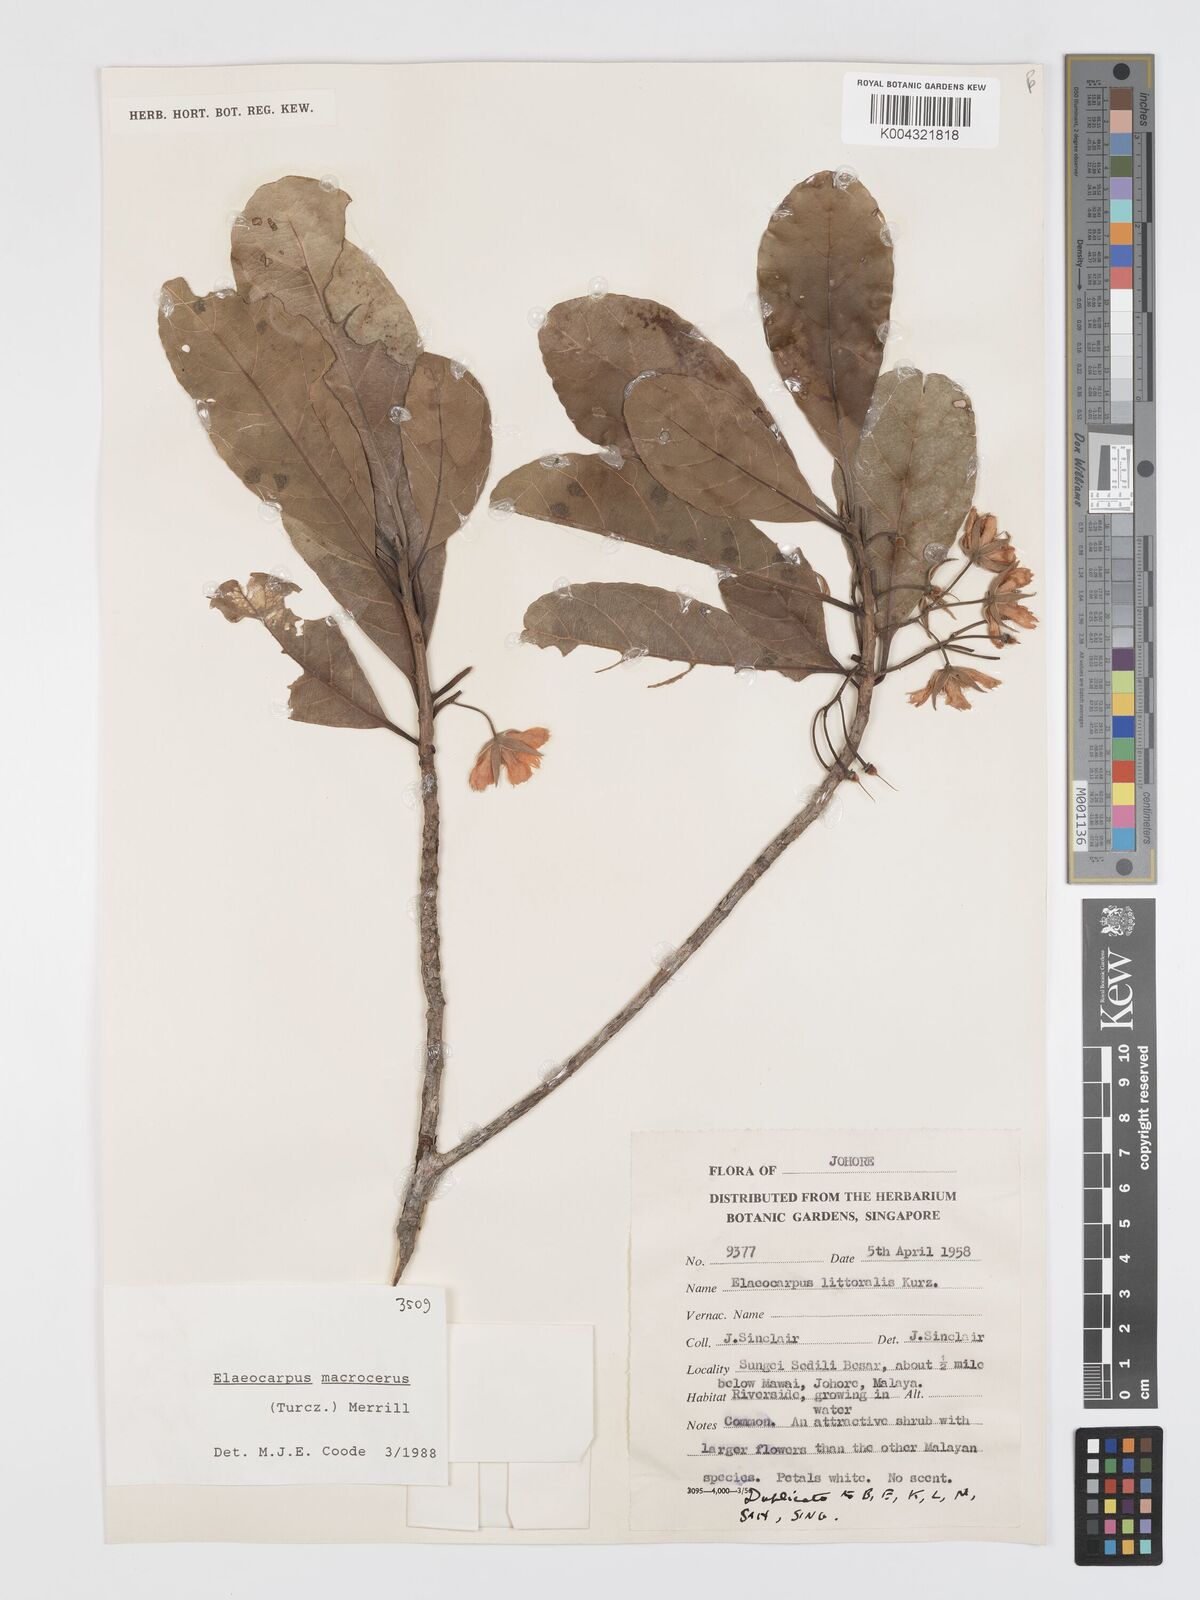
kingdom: Plantae
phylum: Tracheophyta
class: Magnoliopsida
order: Oxalidales
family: Elaeocarpaceae
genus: Elaeocarpus
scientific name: Elaeocarpus macrocerus
